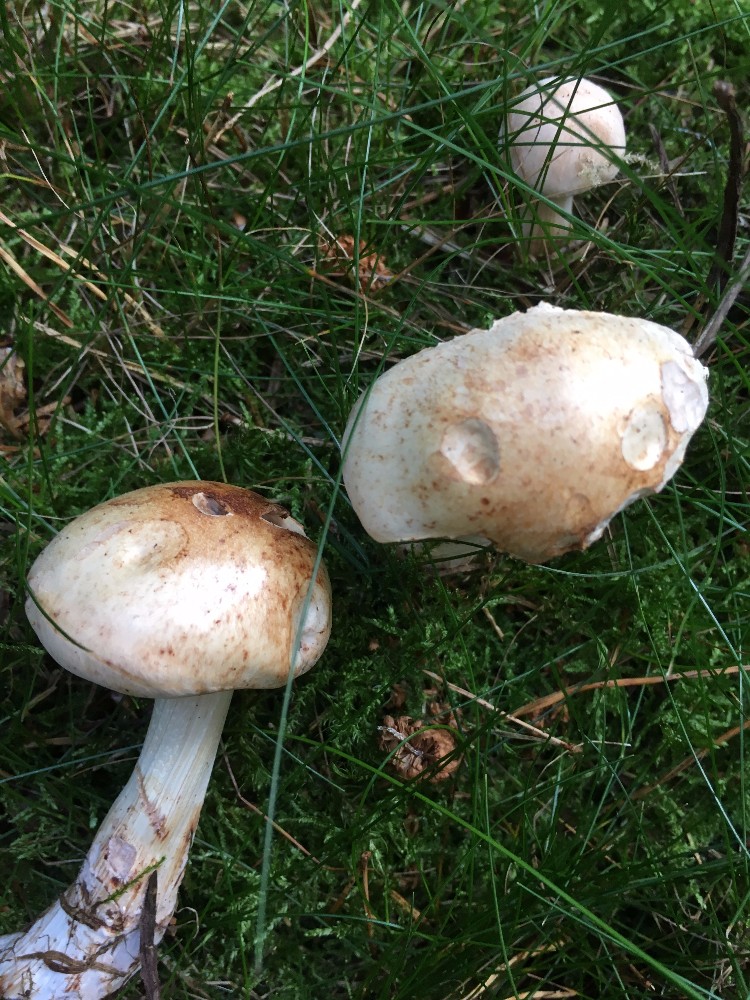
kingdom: Fungi
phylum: Basidiomycota
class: Agaricomycetes
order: Agaricales
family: Omphalotaceae
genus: Rhodocollybia
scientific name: Rhodocollybia maculata
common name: plettet fladhat
